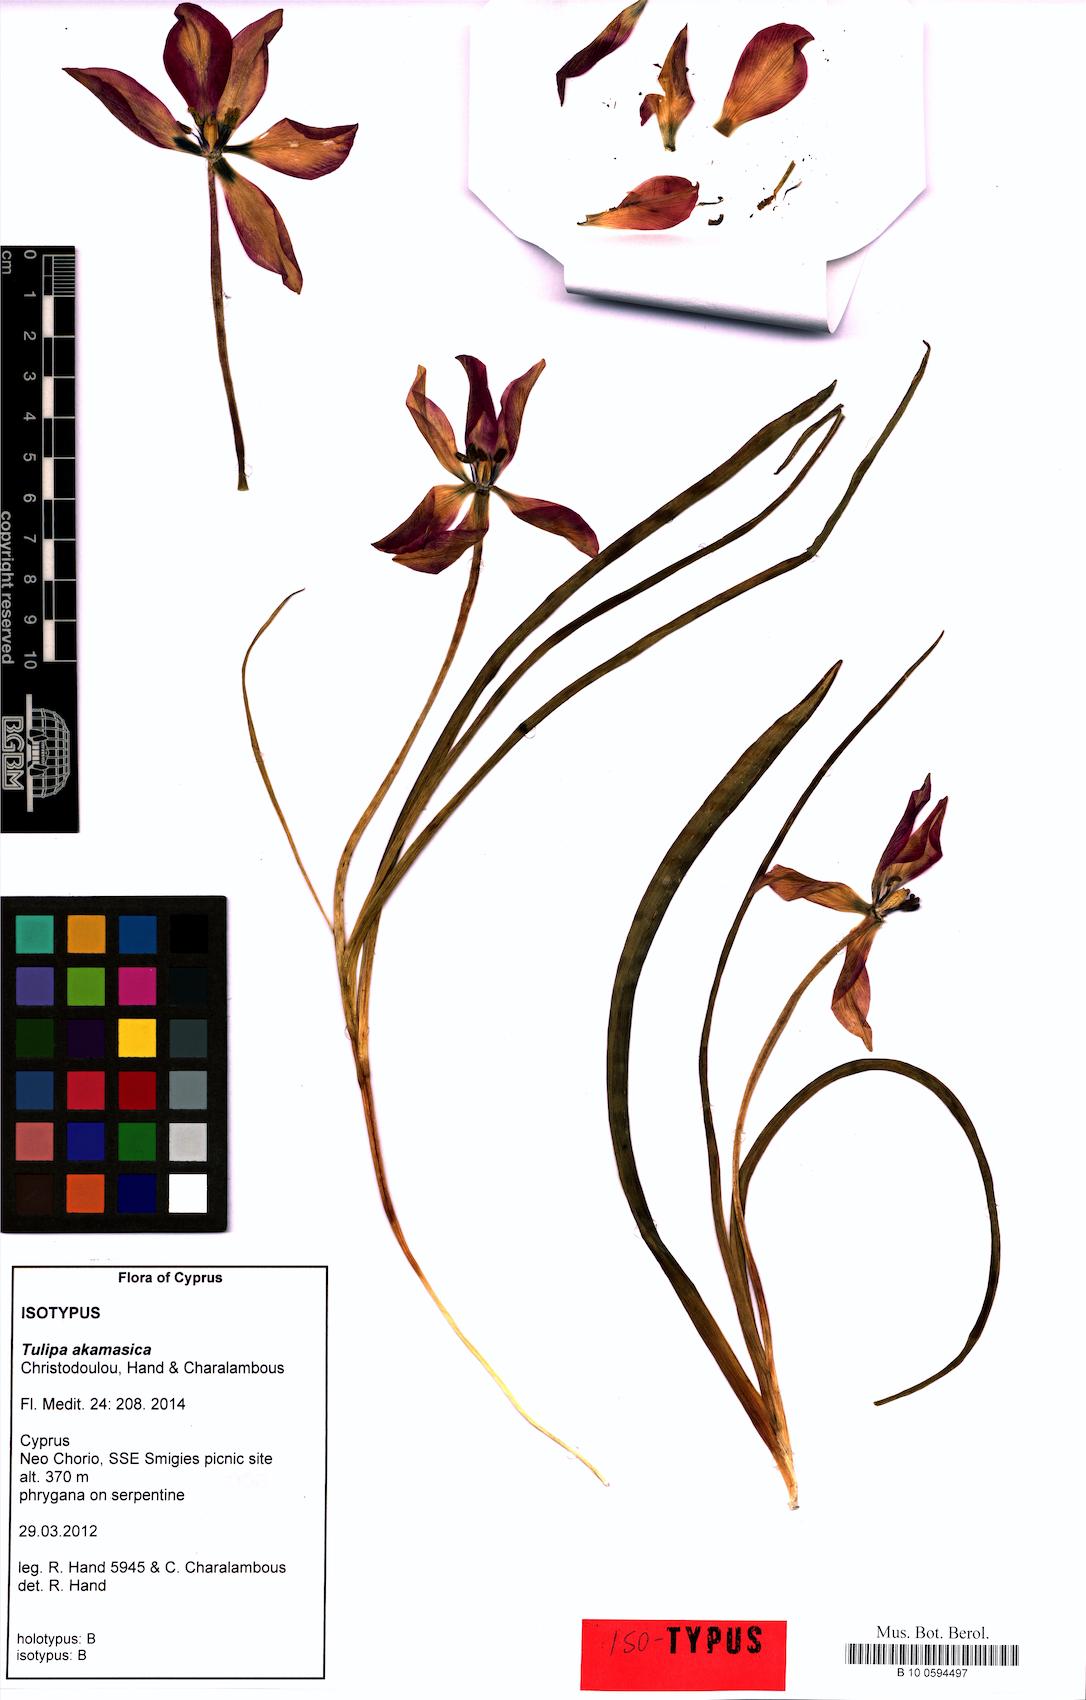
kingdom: Plantae
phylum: Tracheophyta
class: Liliopsida
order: Liliales
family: Liliaceae
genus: Tulipa
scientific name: Tulipa akamasica
